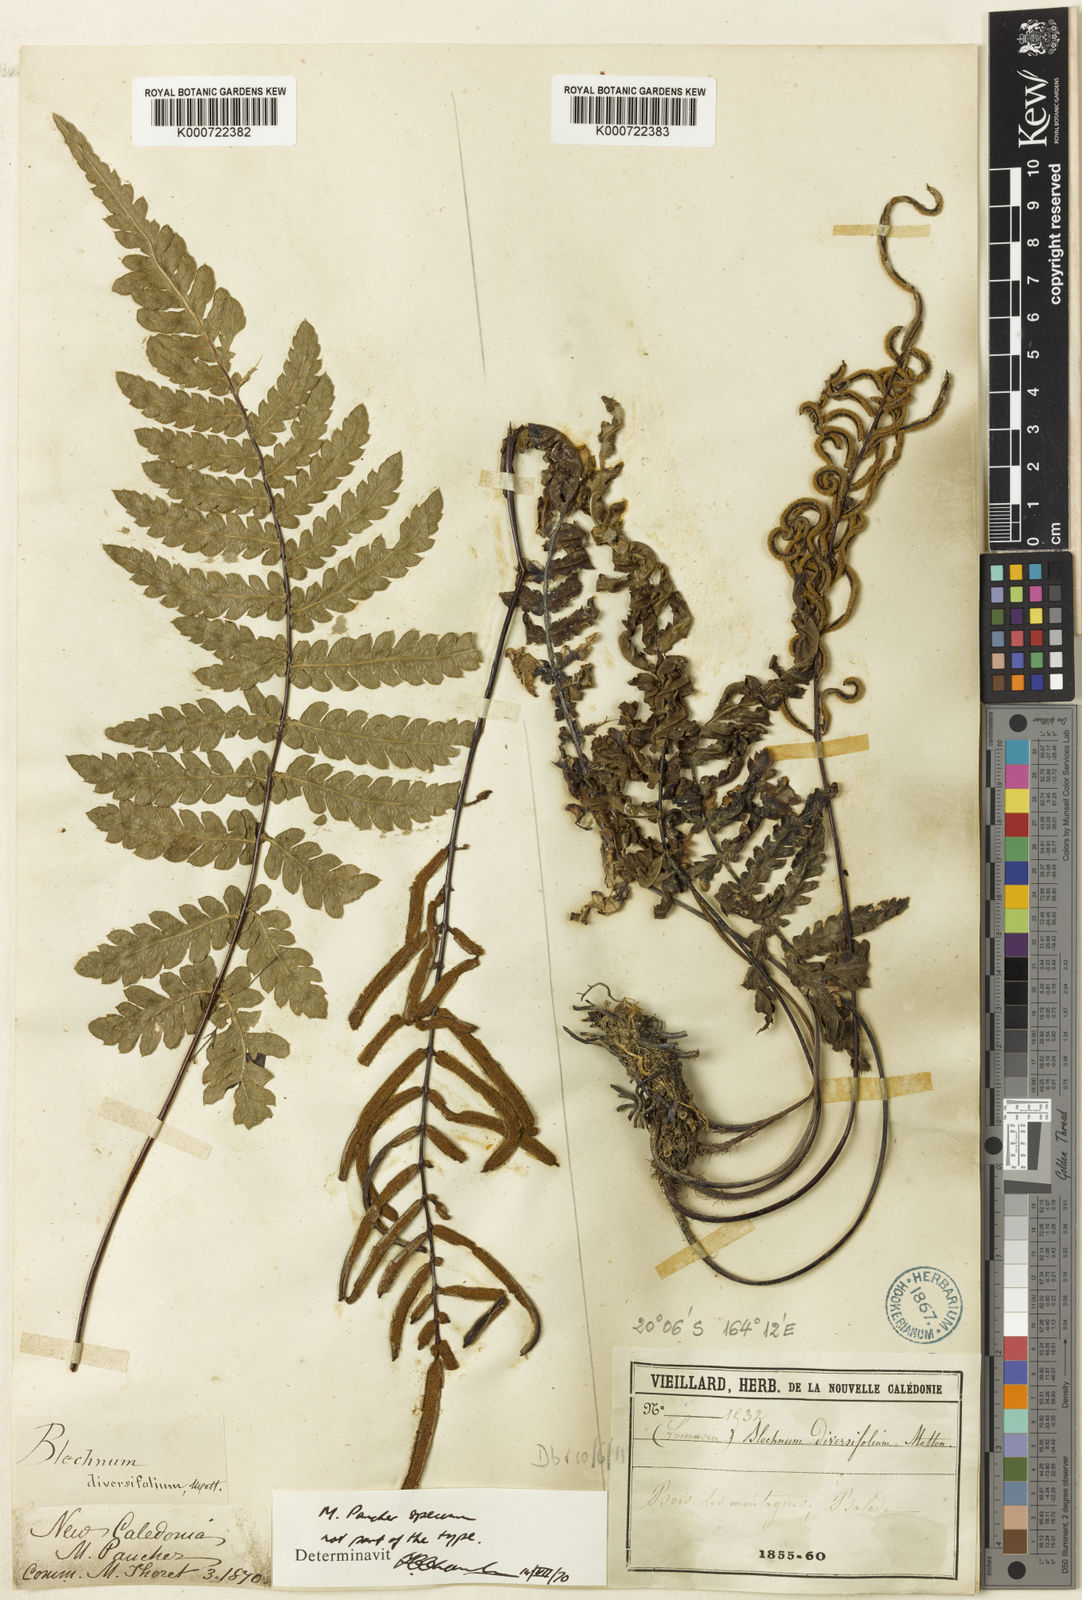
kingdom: Plantae
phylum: Tracheophyta
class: Polypodiopsida
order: Polypodiales
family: Blechnaceae
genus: Diploblechnum
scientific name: Diploblechnum diversifolium
